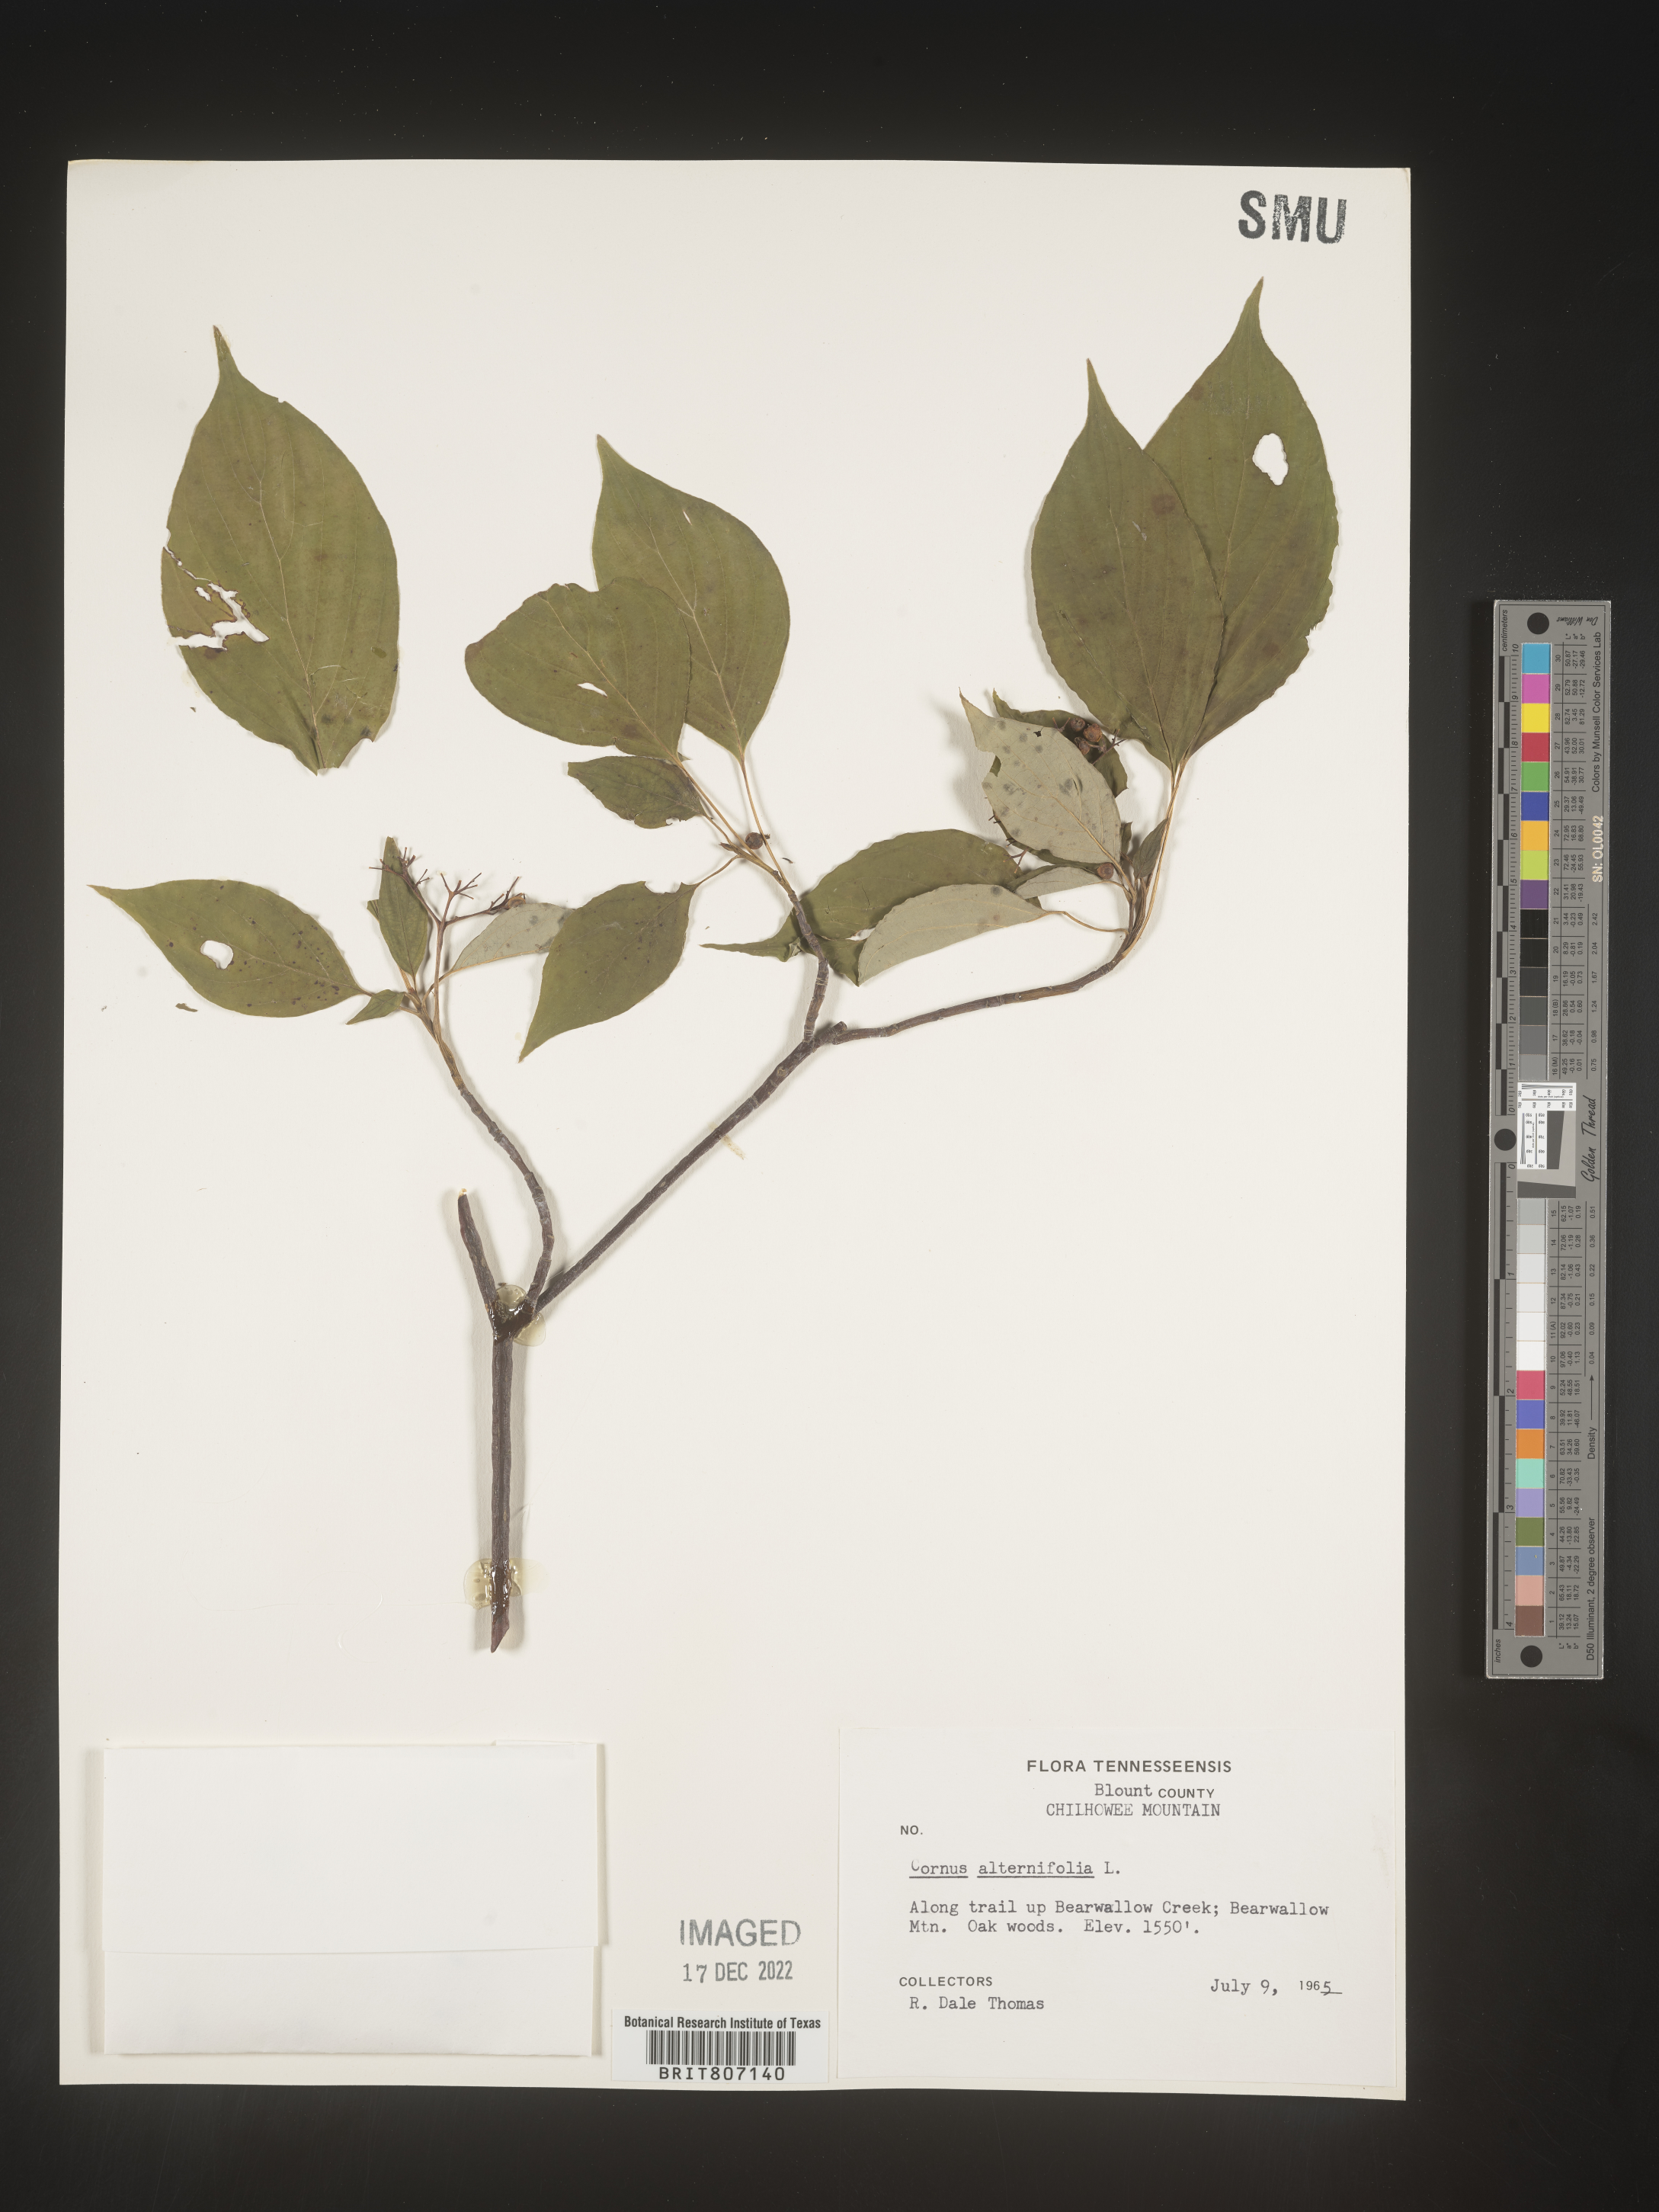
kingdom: Plantae
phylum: Tracheophyta
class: Magnoliopsida
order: Cornales
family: Cornaceae
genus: Cornus
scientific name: Cornus alternifolia
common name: Pagoda dogwood
